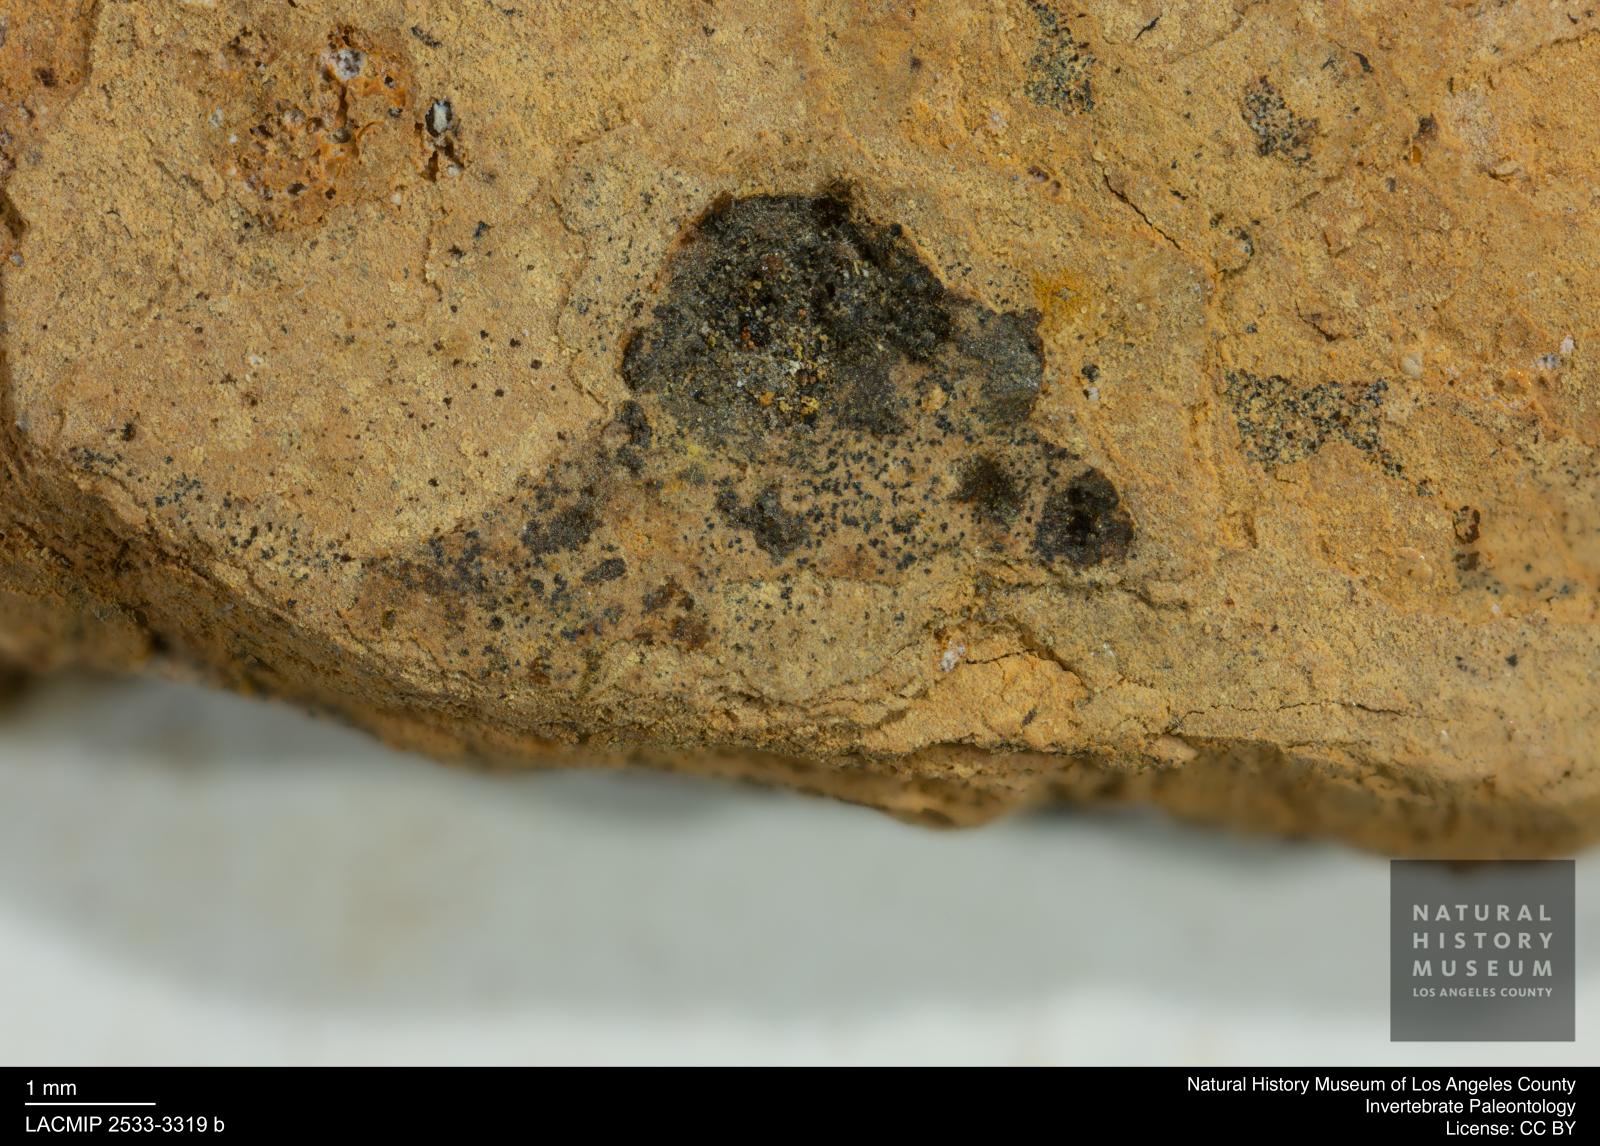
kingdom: Animalia
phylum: Arthropoda
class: Insecta
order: Coleoptera
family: Dytiscidae
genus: Laccophilus
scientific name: Laccophilus Palaeogyrinus strigatus
